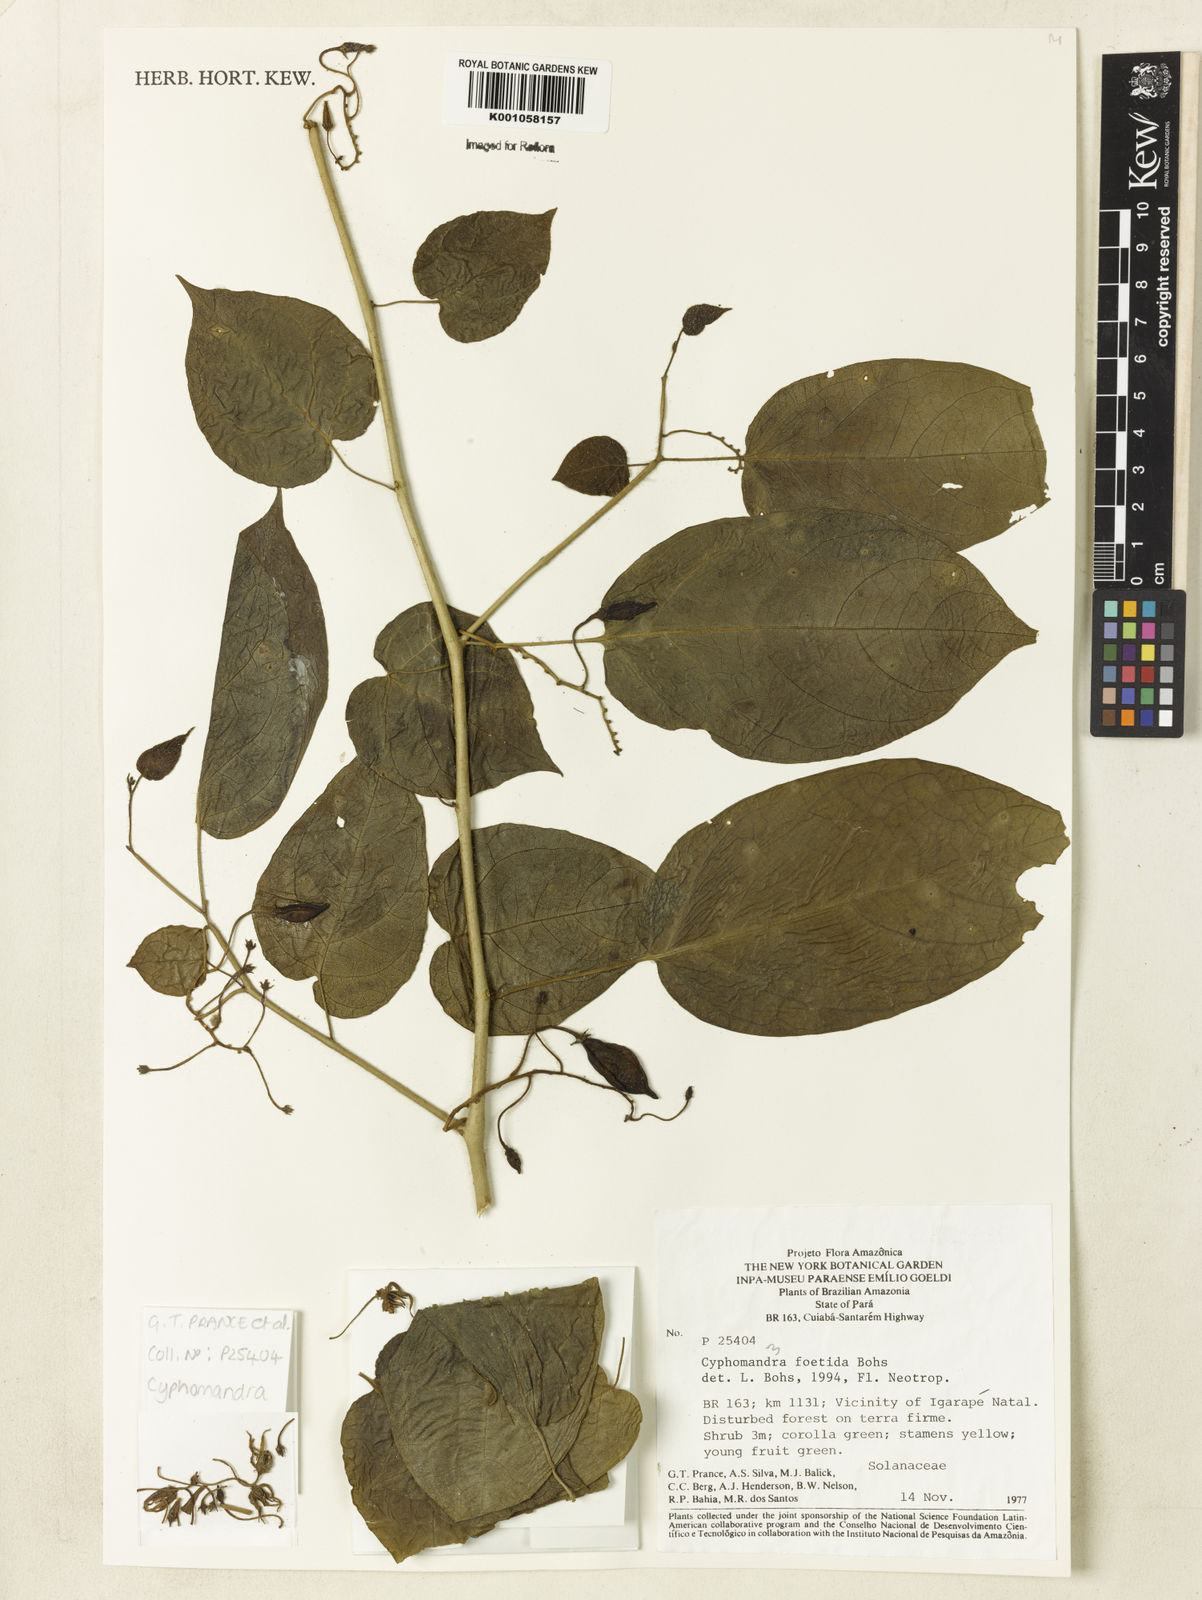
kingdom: Plantae
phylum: Tracheophyta
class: Magnoliopsida
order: Solanales
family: Solanaceae
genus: Solanum
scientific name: Solanum
